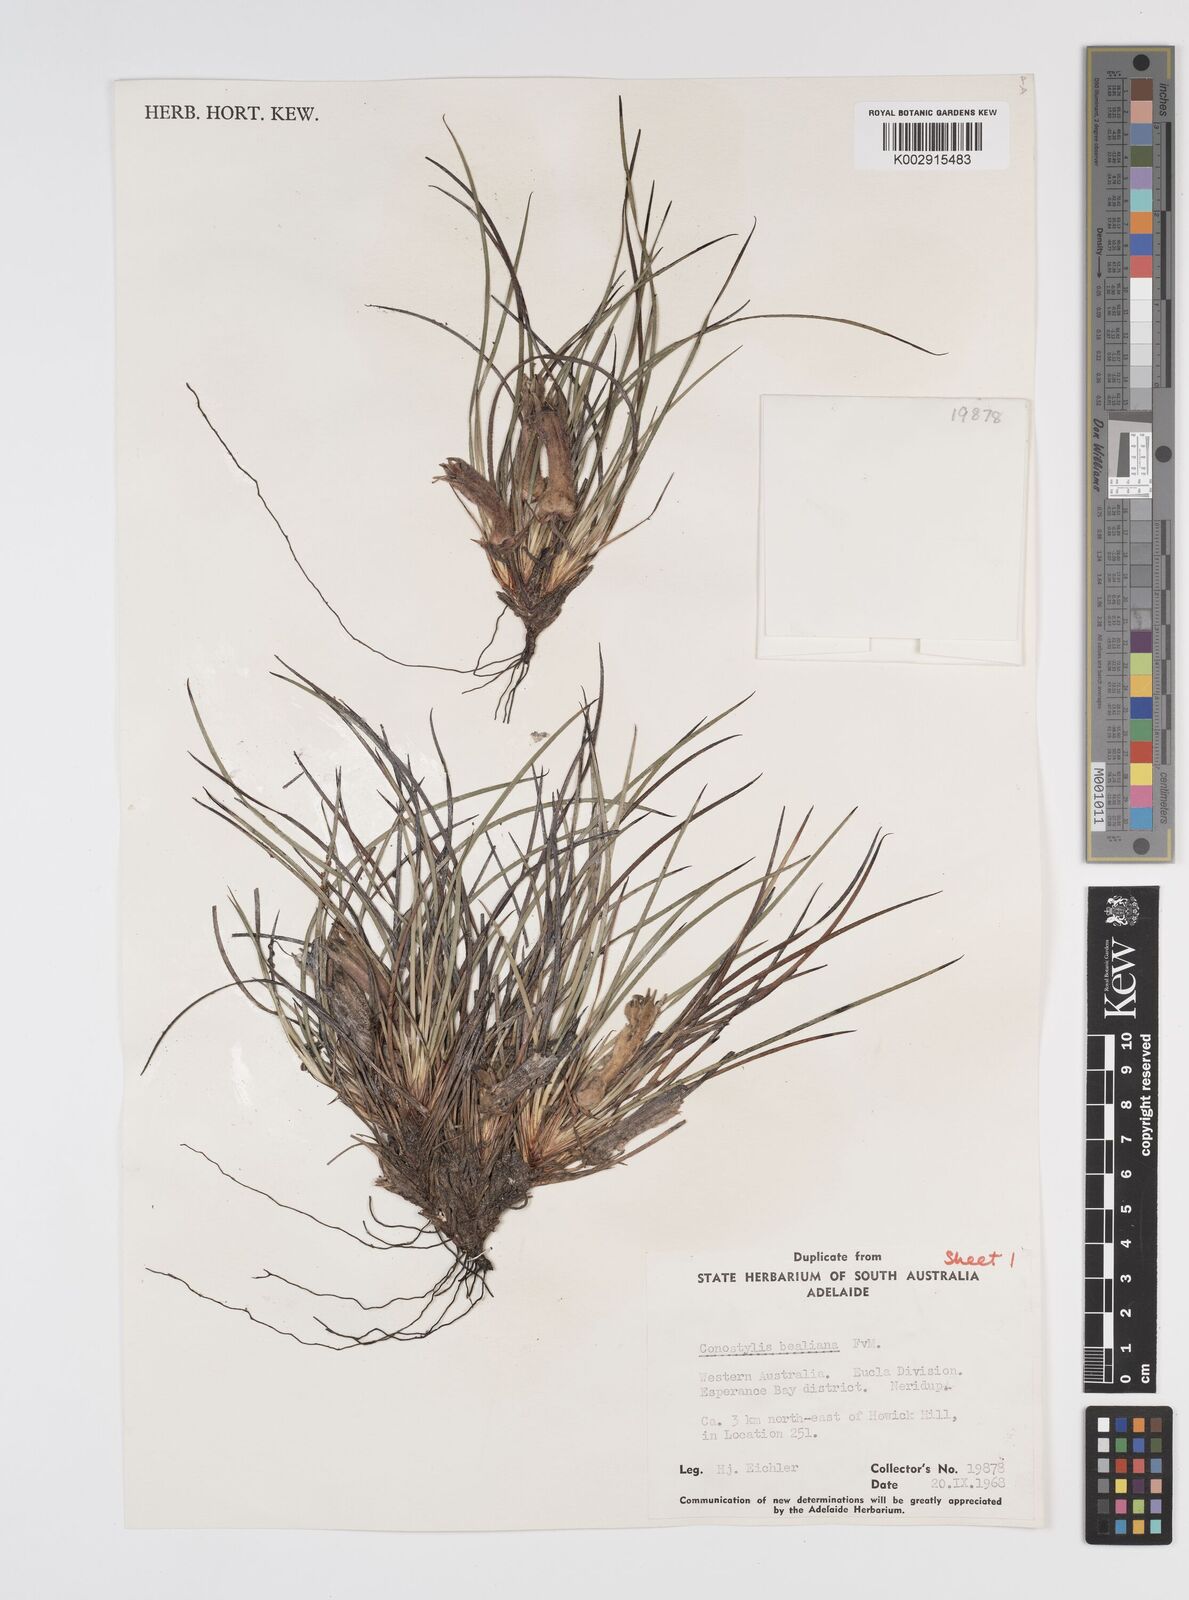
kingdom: Plantae
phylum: Tracheophyta
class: Liliopsida
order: Commelinales
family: Haemodoraceae
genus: Conostylis
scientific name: Conostylis bealiana
